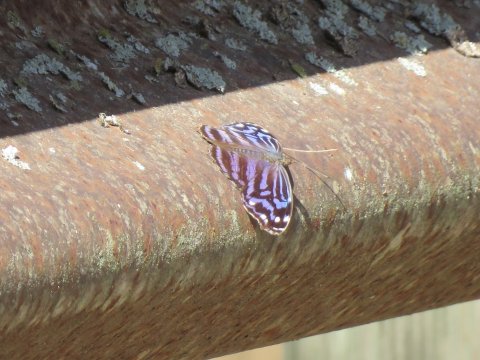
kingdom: Animalia
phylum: Arthropoda
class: Insecta
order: Lepidoptera
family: Nymphalidae
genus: Myscelia
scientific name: Myscelia ethusa
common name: Mexican Bluewing
